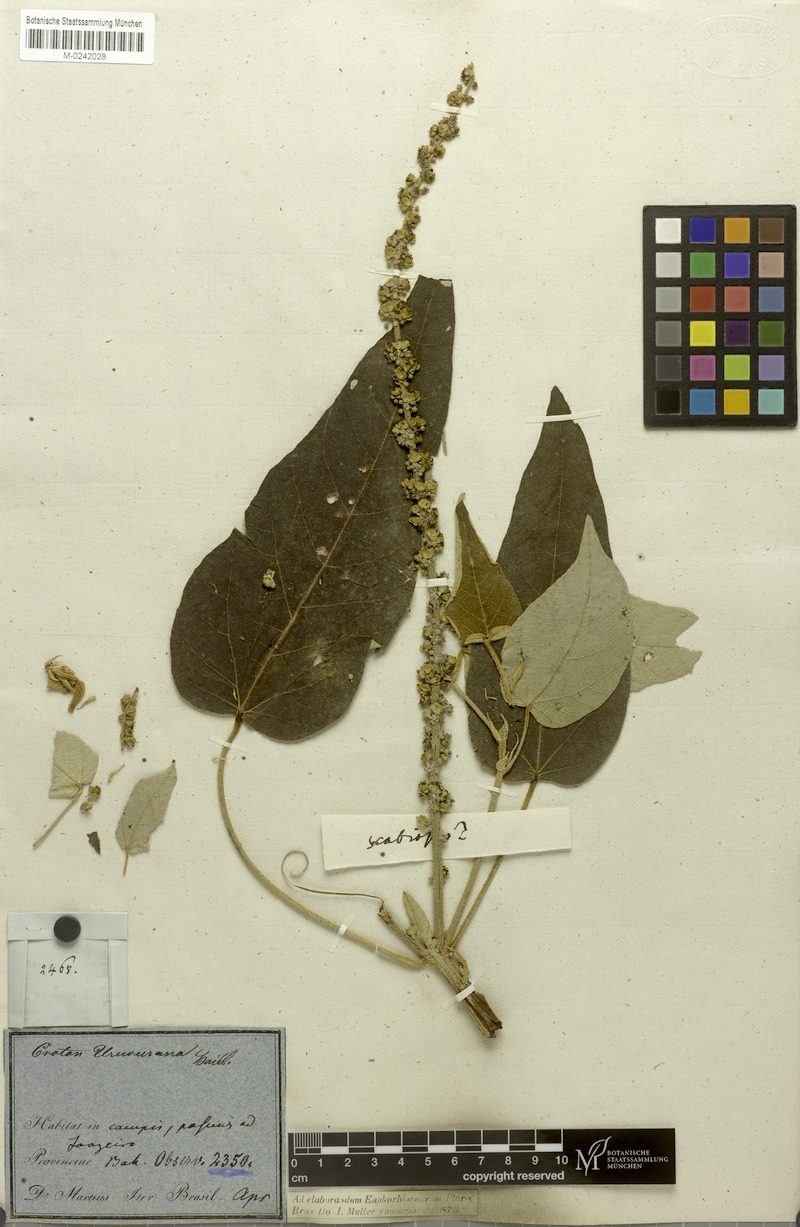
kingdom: Plantae
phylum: Tracheophyta
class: Magnoliopsida
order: Malpighiales
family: Euphorbiaceae
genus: Croton
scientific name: Croton urucurana
